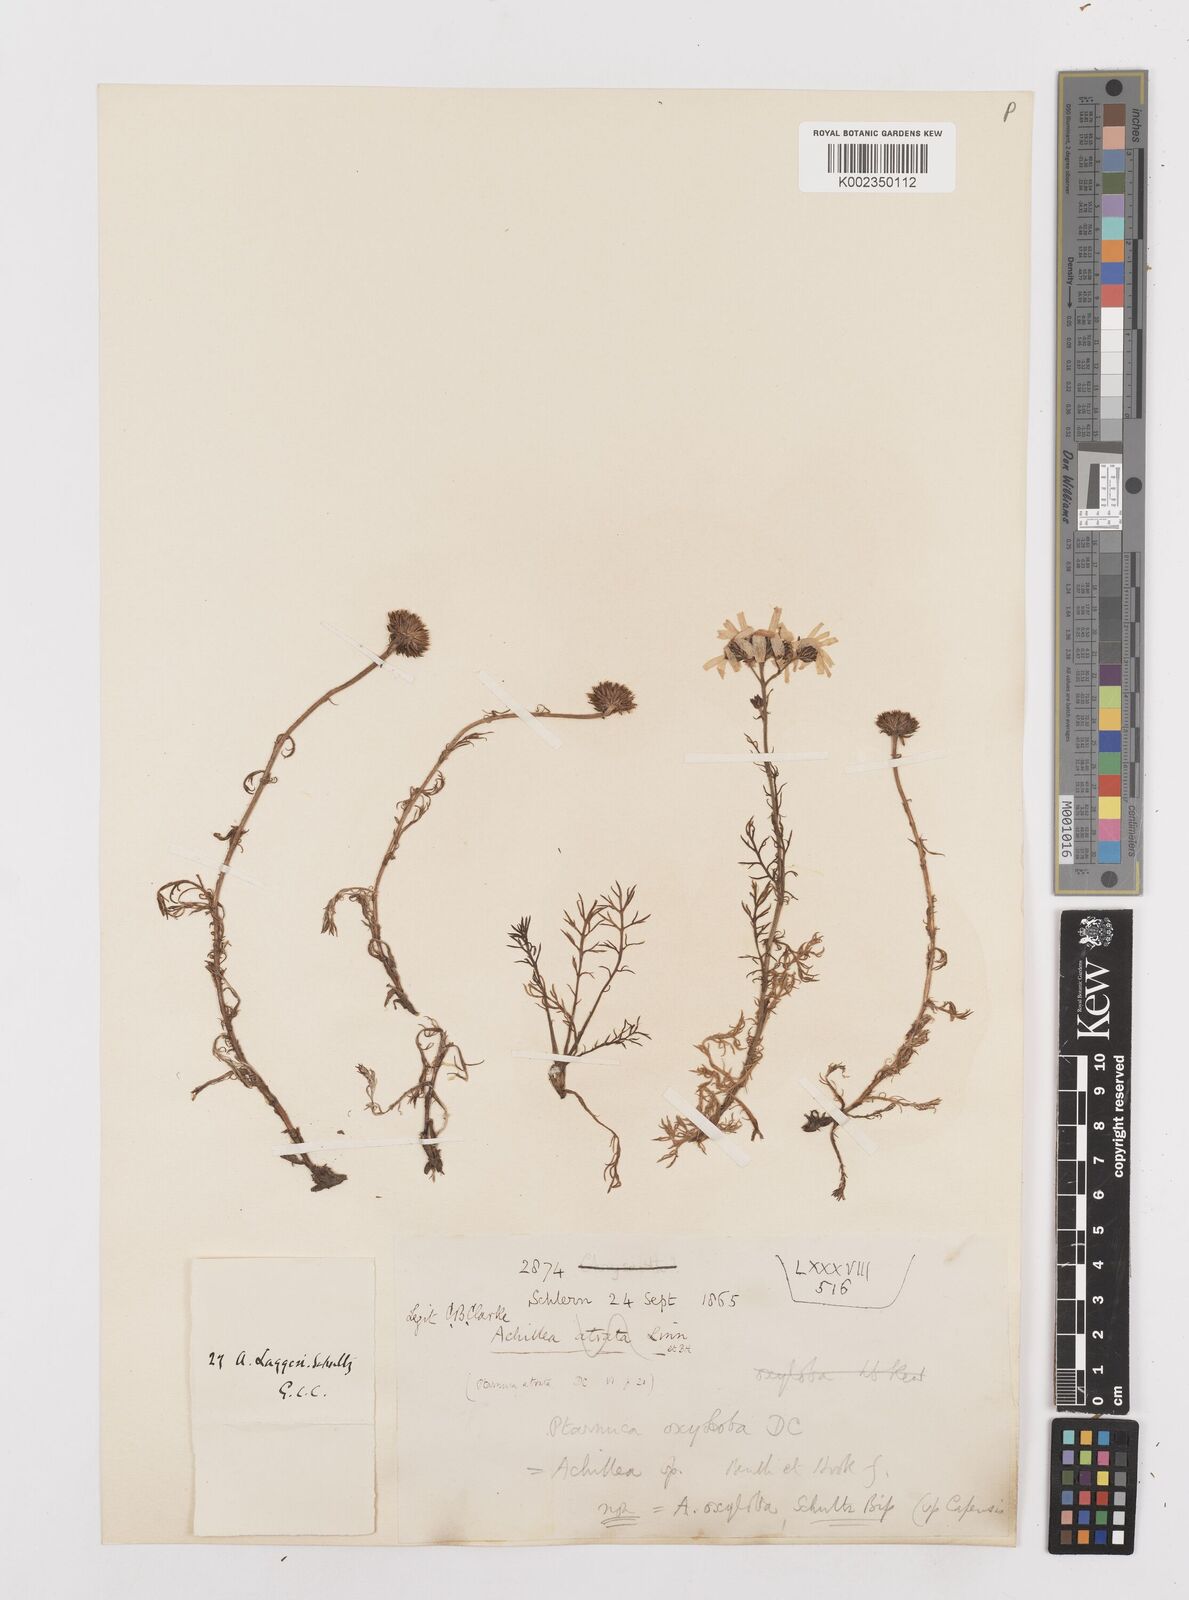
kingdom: Plantae
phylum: Tracheophyta
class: Magnoliopsida
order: Asterales
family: Asteraceae
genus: Achillea
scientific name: Achillea atrata
